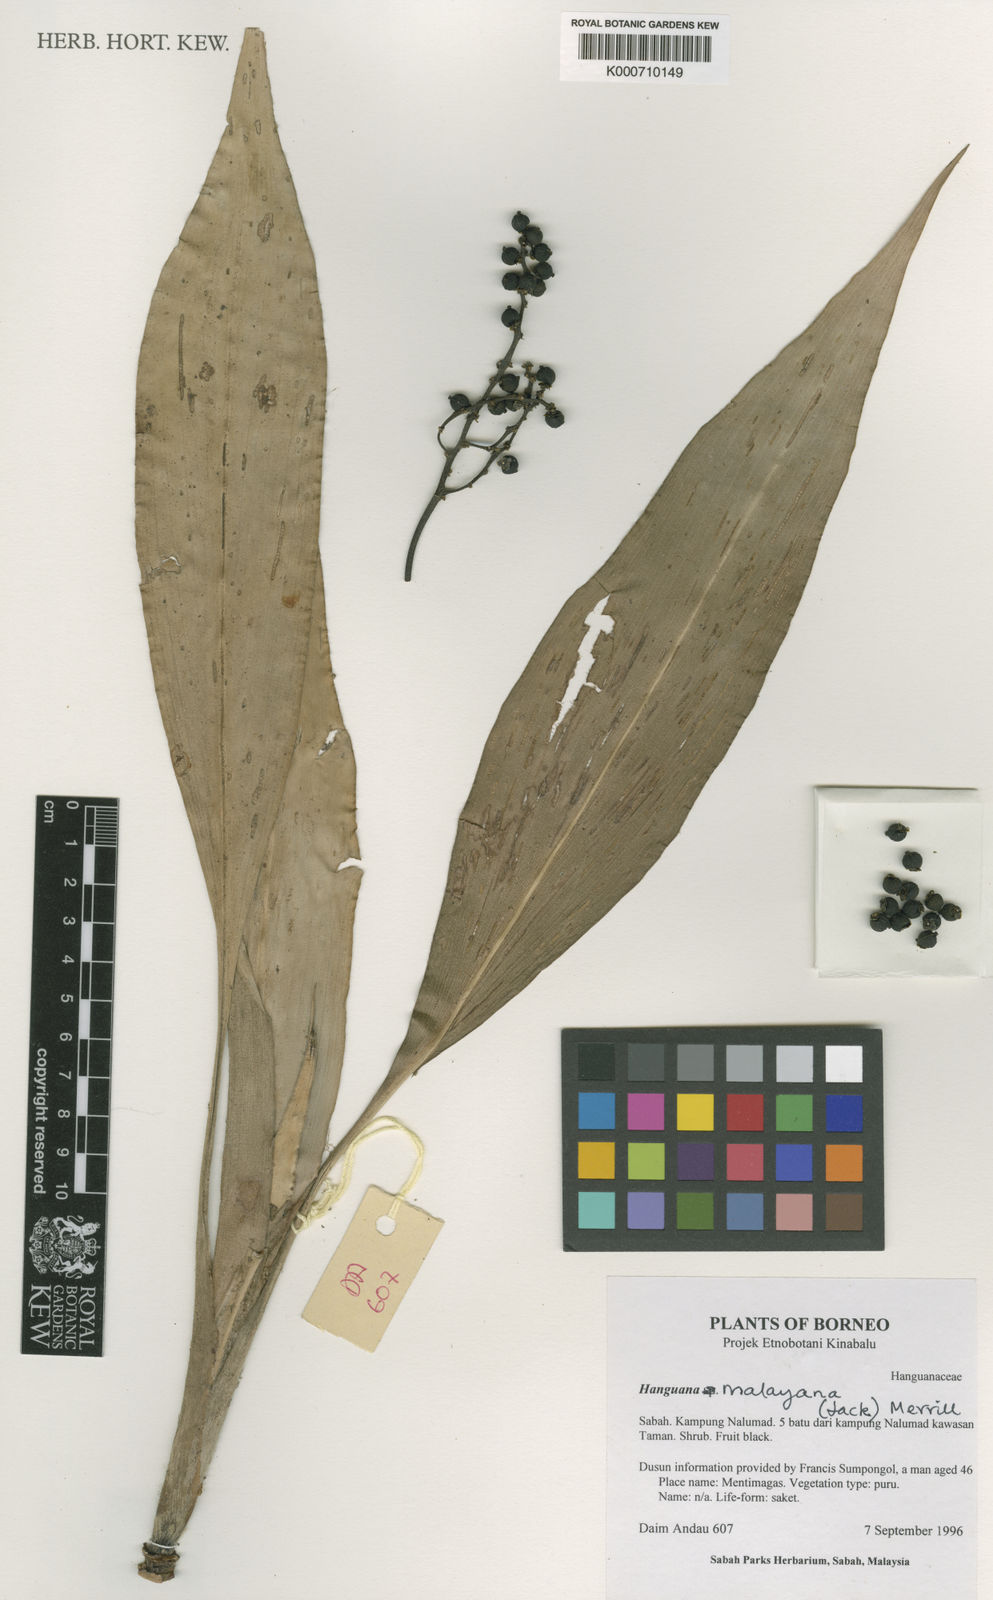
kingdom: Plantae
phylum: Tracheophyta
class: Liliopsida
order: Commelinales
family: Hanguanaceae
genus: Hanguana
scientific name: Hanguana malayana
